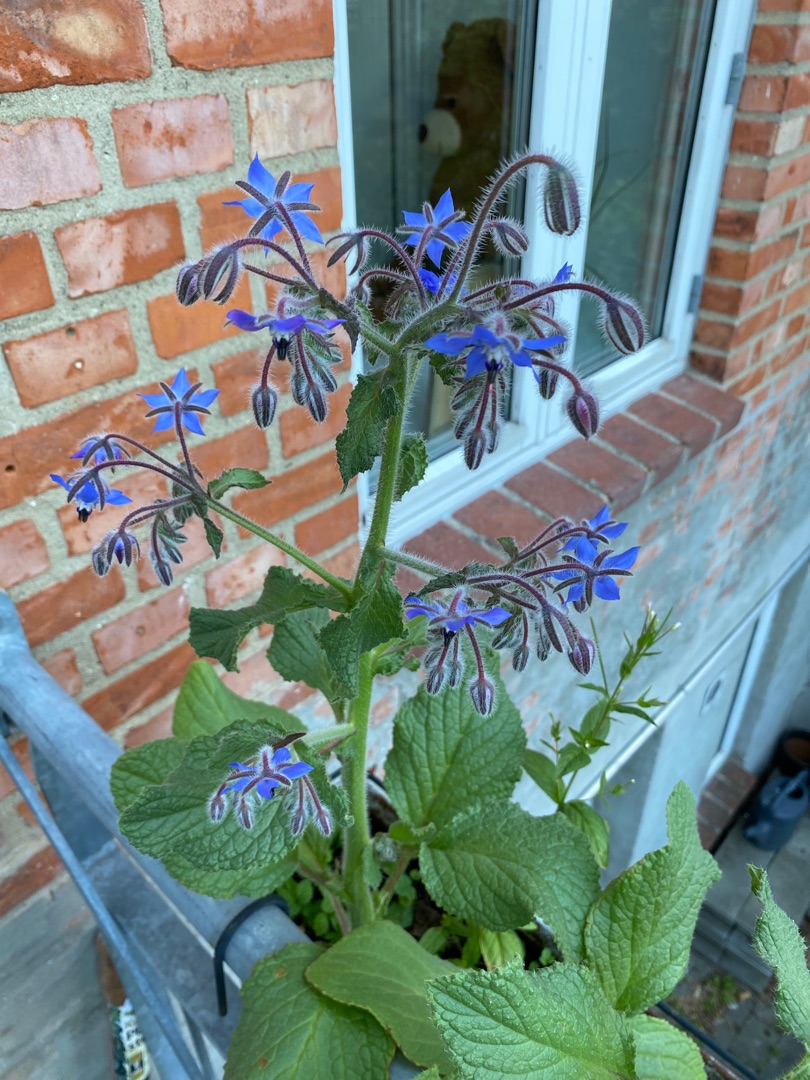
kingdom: Plantae
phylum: Tracheophyta
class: Magnoliopsida
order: Boraginales
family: Boraginaceae
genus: Borago
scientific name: Borago officinalis
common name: Hjulkrone
